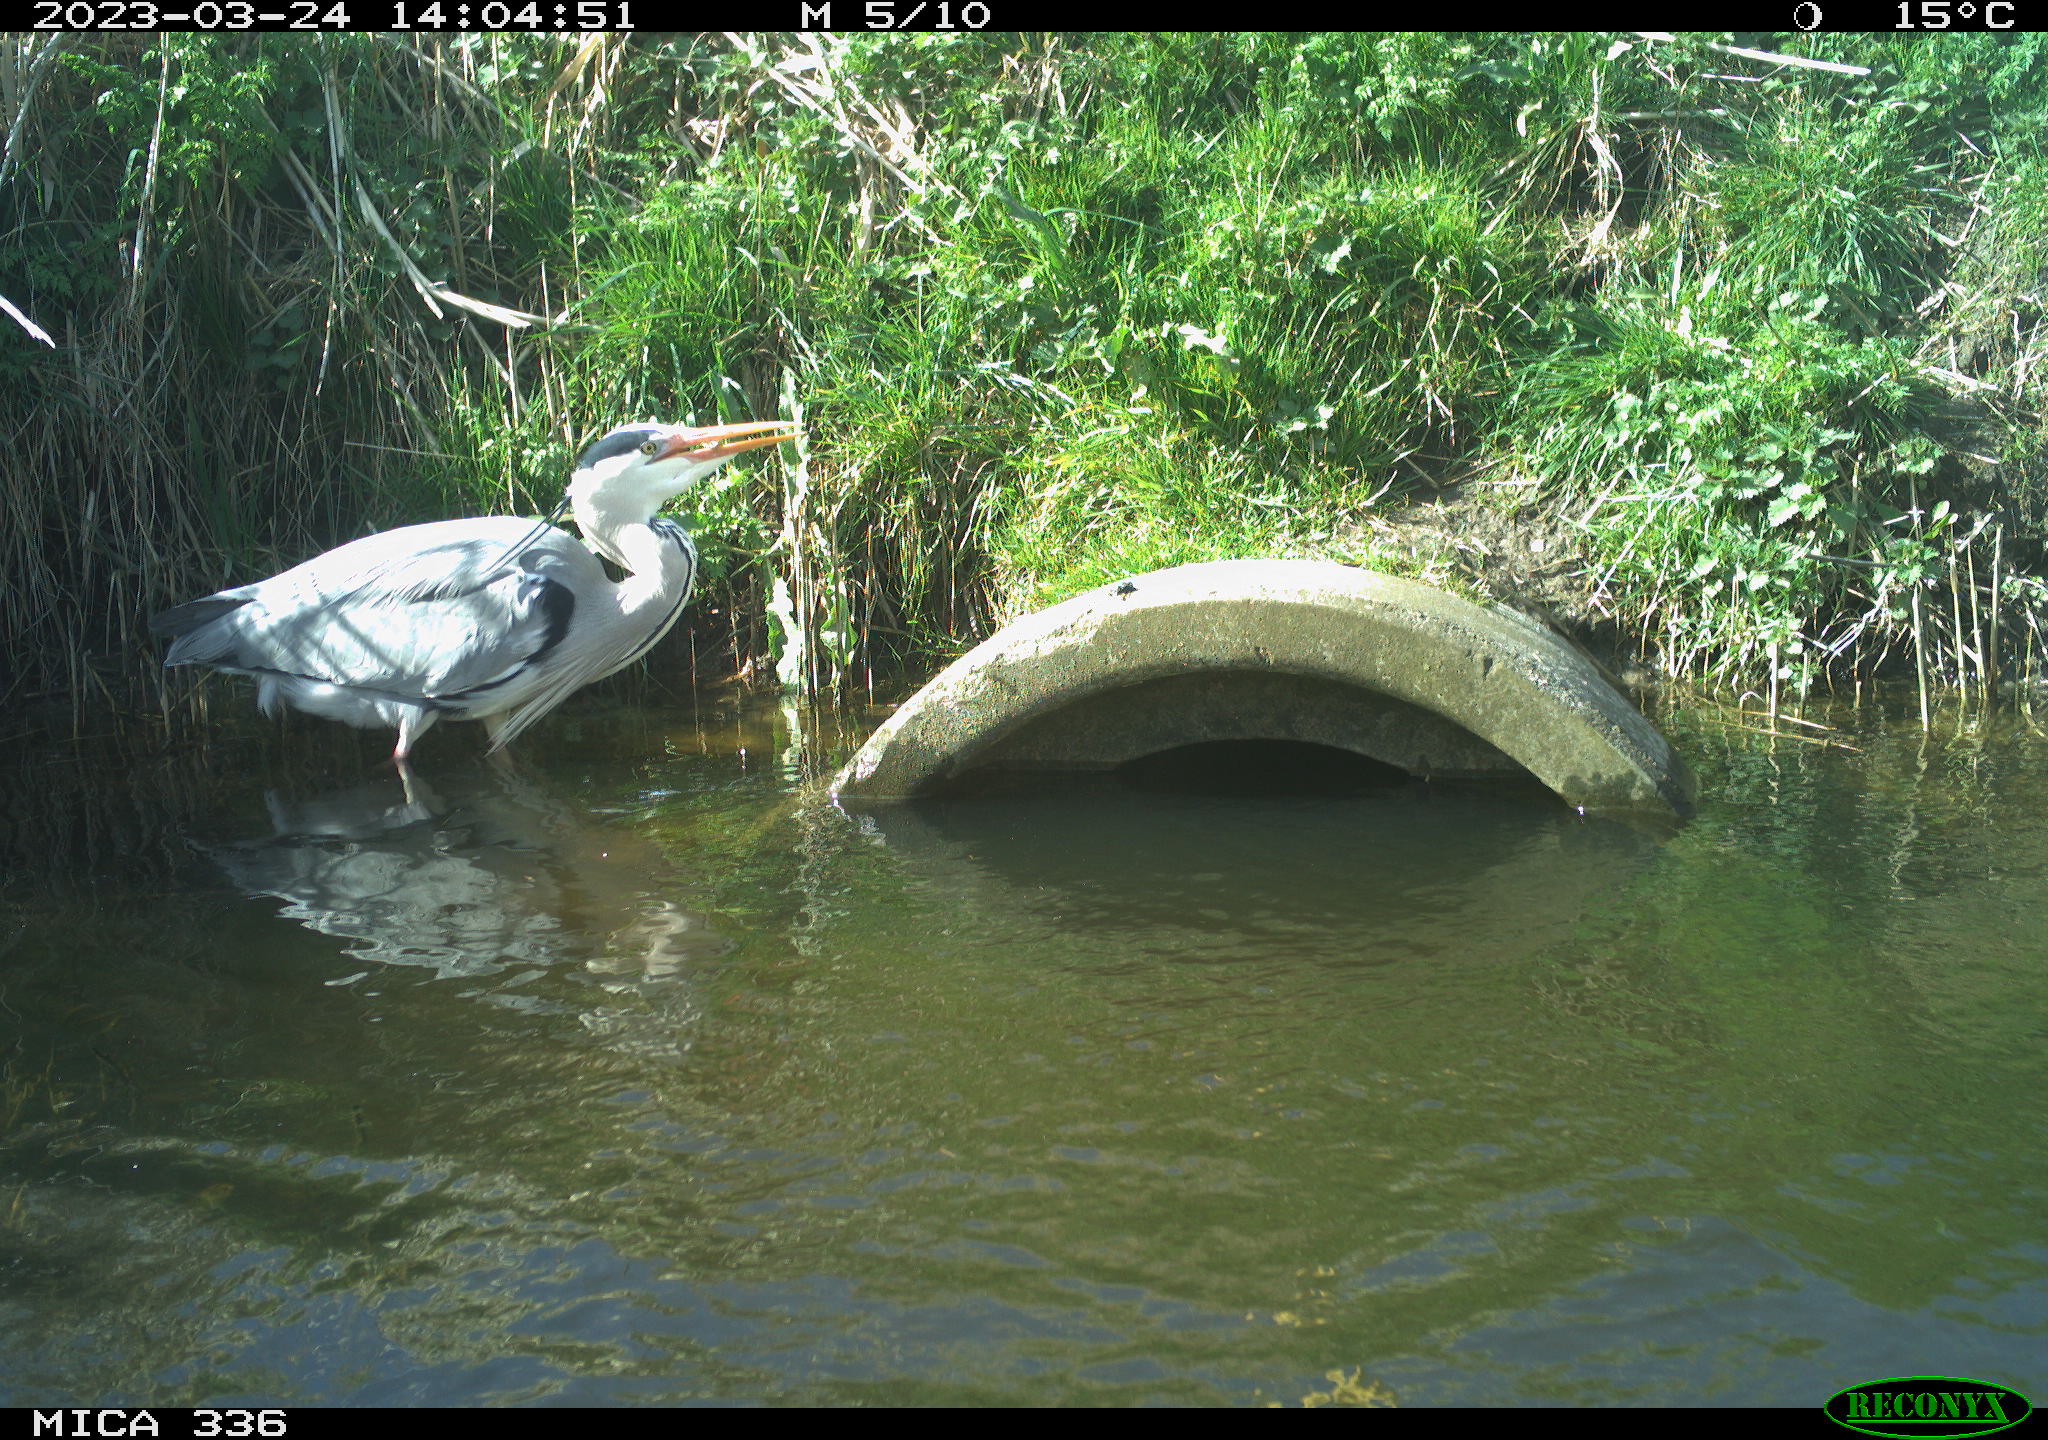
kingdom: Animalia
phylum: Chordata
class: Aves
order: Pelecaniformes
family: Ardeidae
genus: Ardea
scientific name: Ardea
